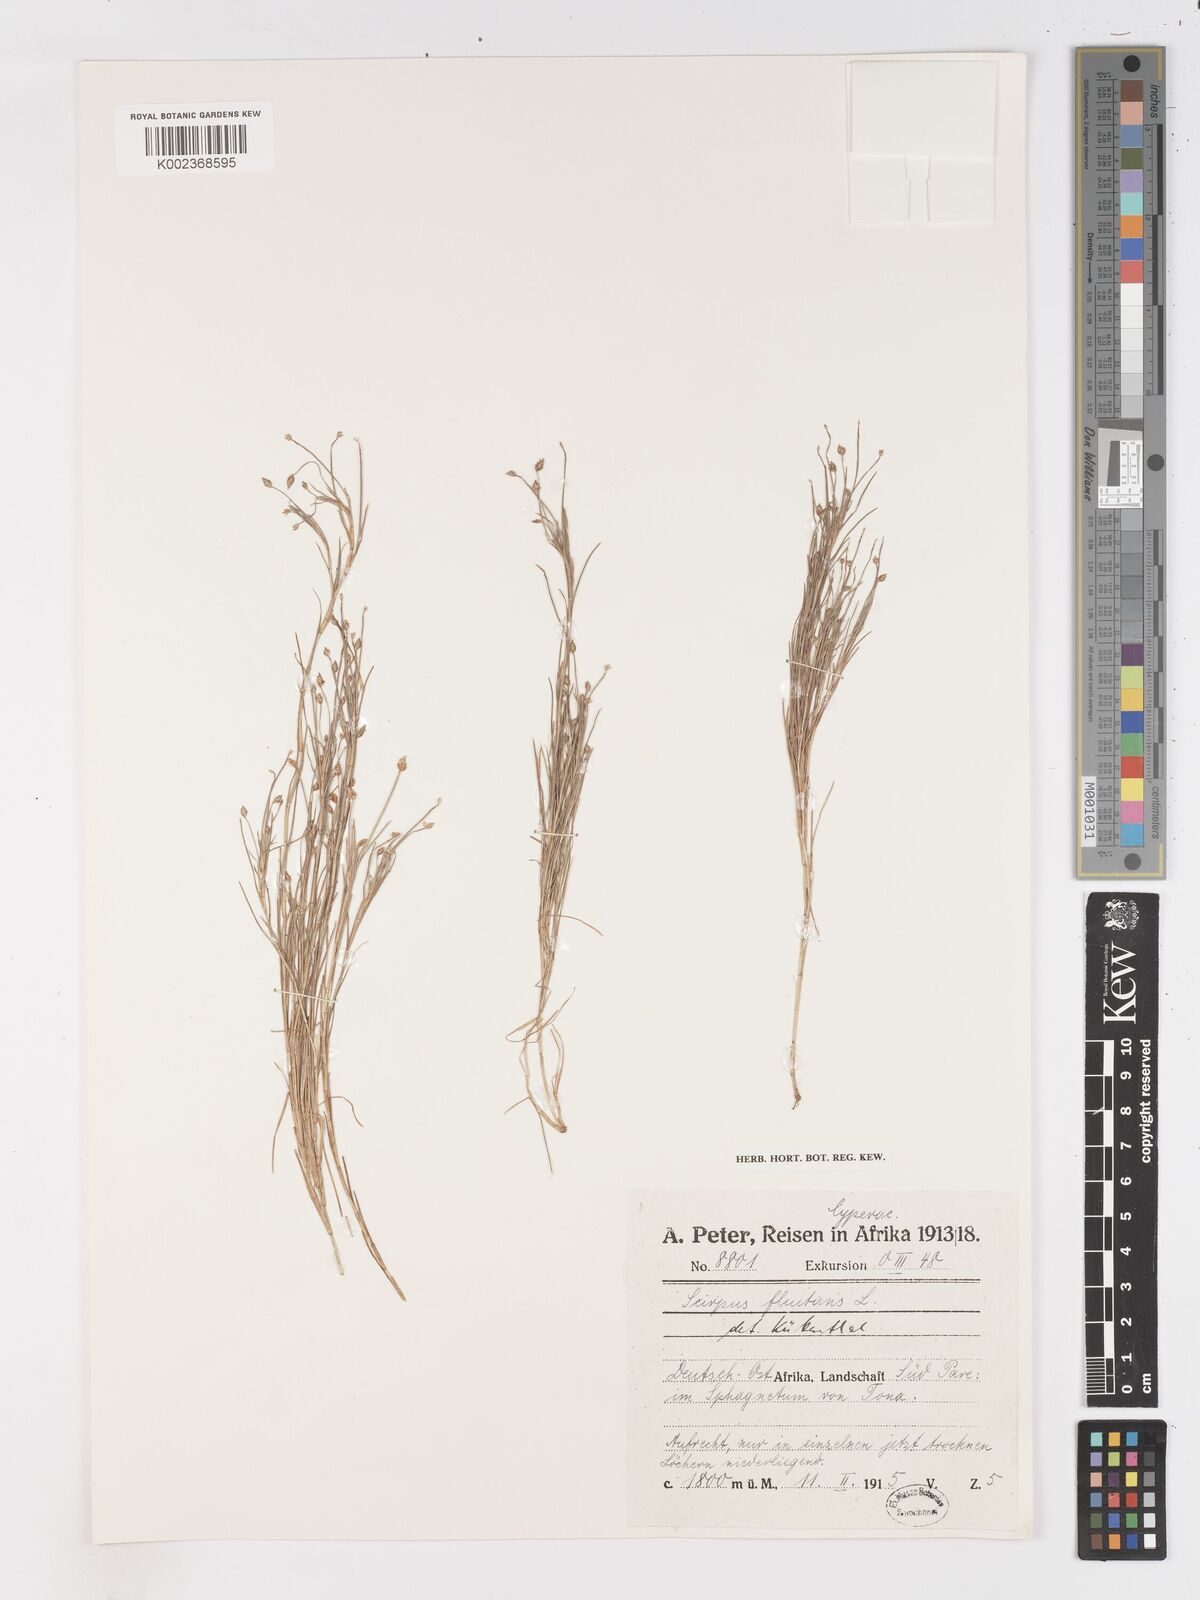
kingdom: Plantae
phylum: Tracheophyta
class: Liliopsida
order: Poales
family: Cyperaceae
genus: Isolepis
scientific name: Isolepis fluitans
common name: Floating club-rush
